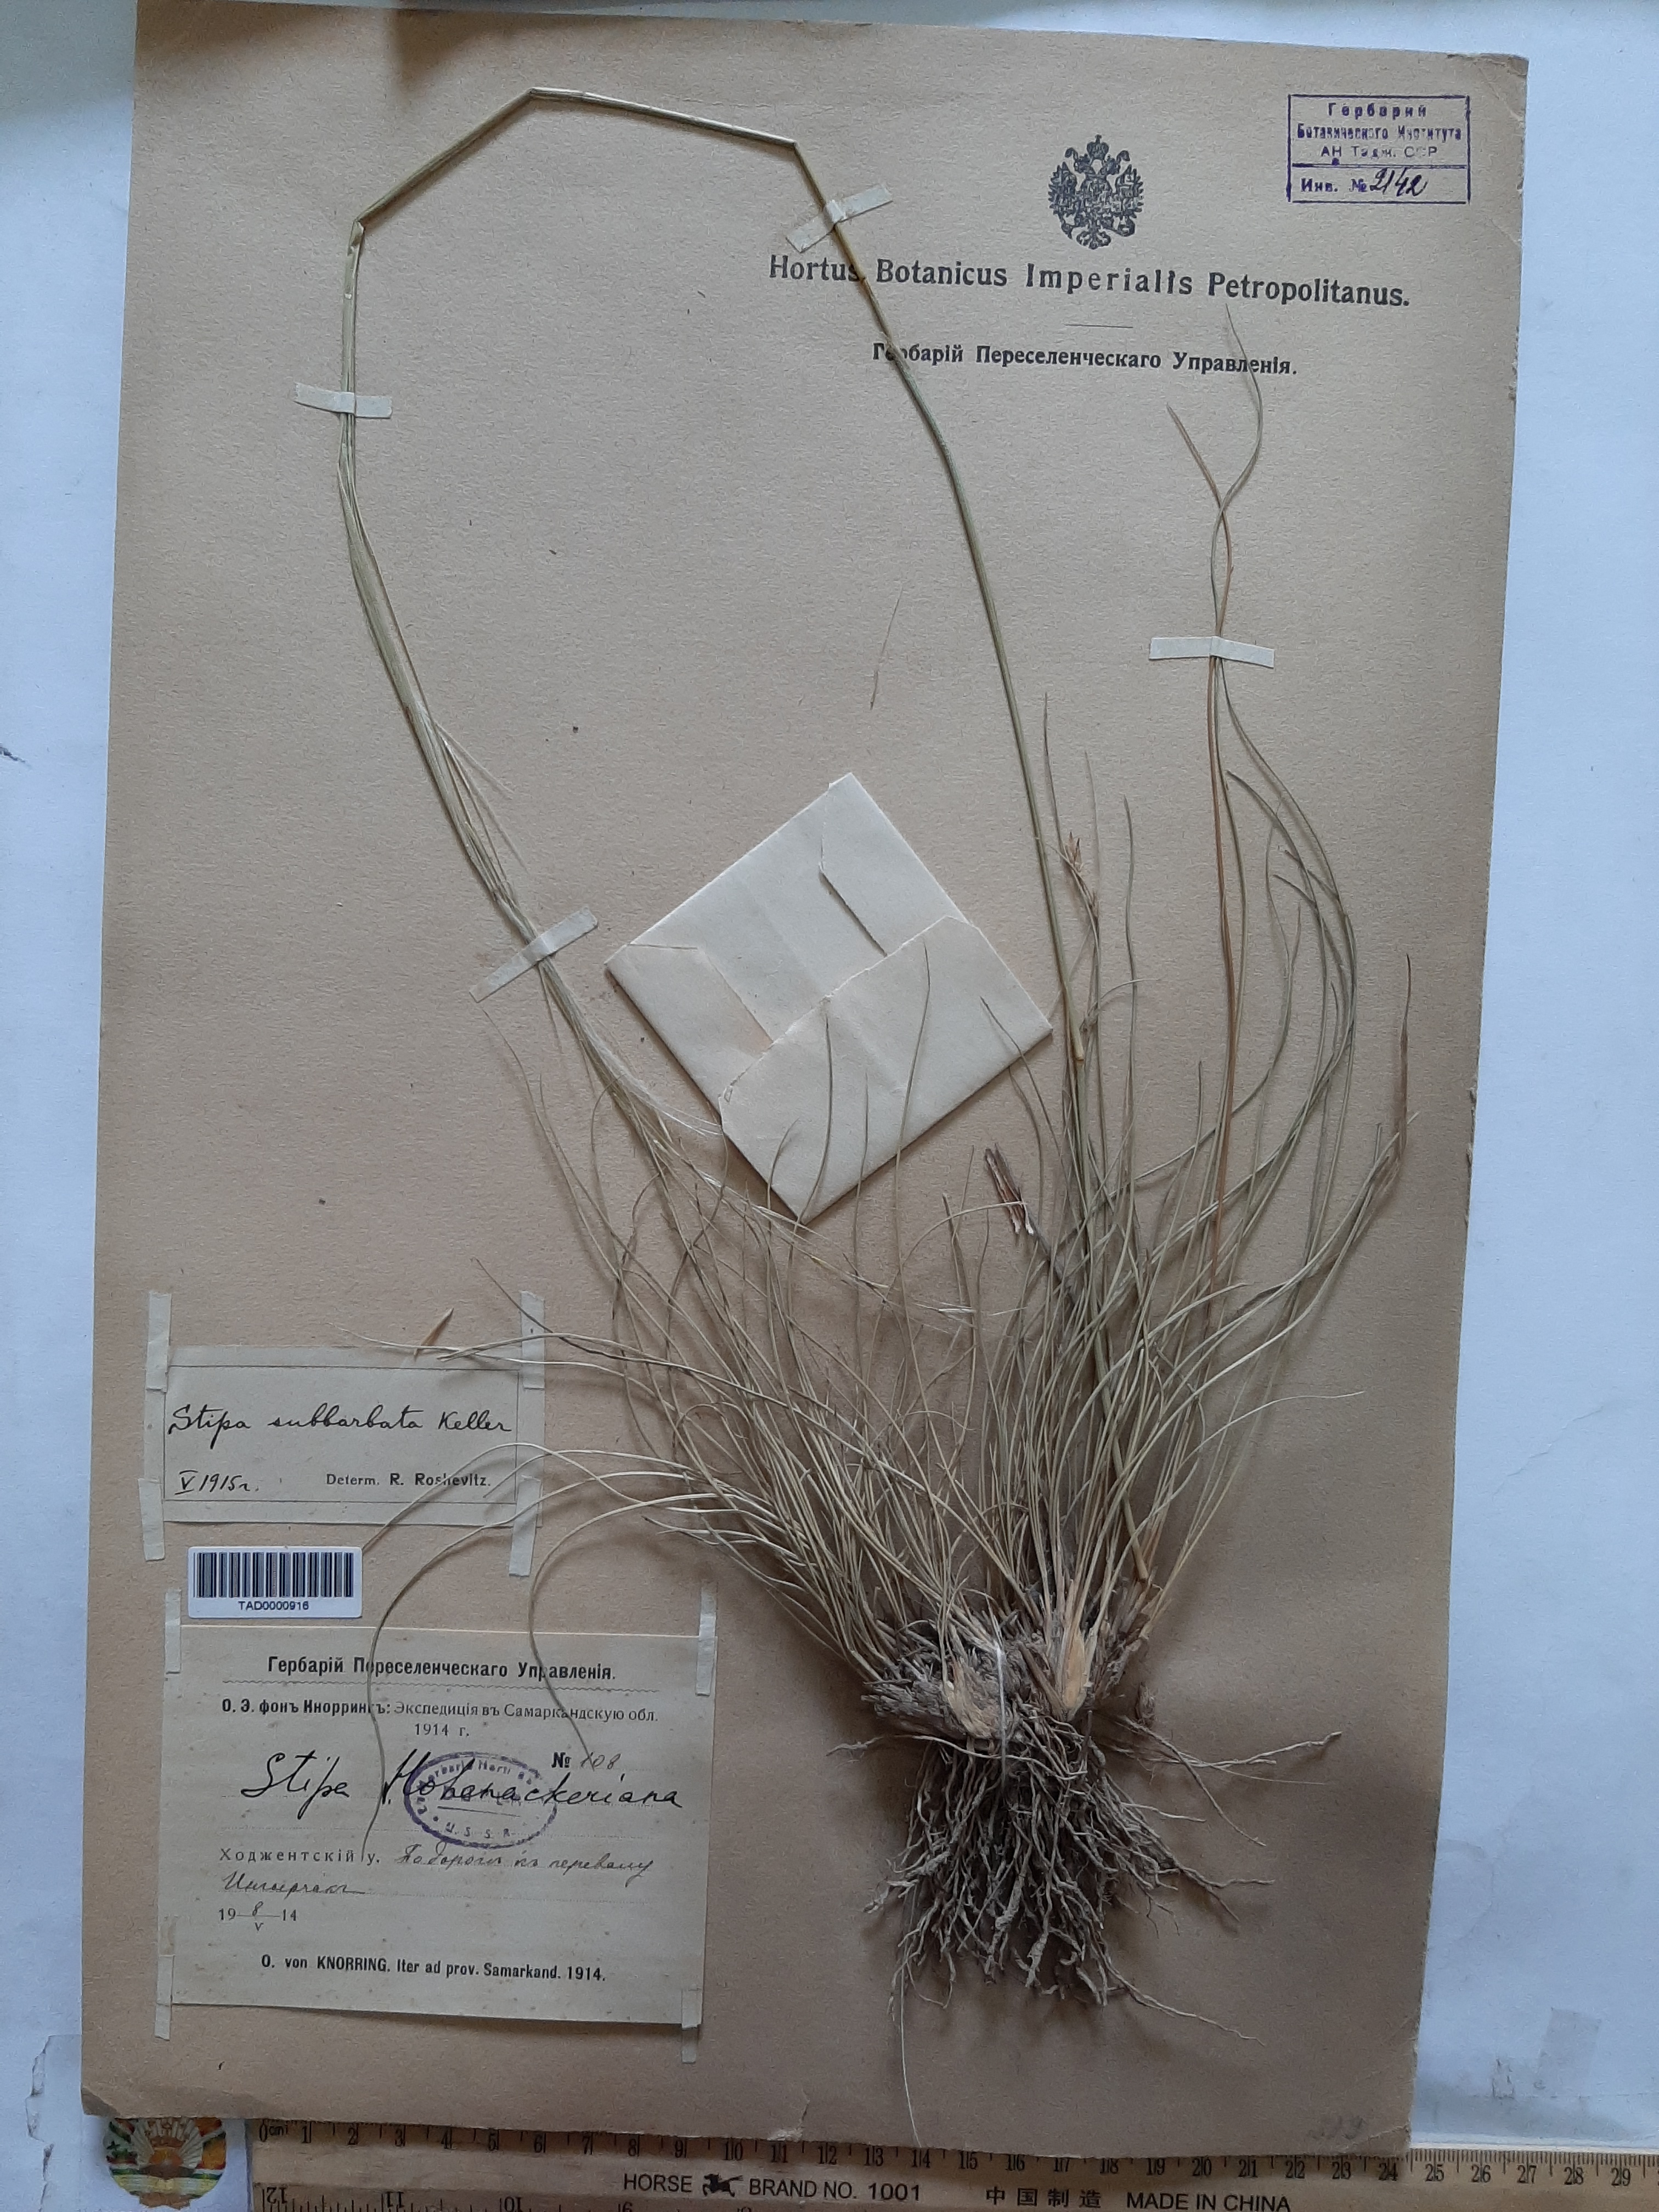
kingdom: Plantae
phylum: Tracheophyta
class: Liliopsida
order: Poales
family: Poaceae
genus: Stipa
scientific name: Stipa hohenackeriana
